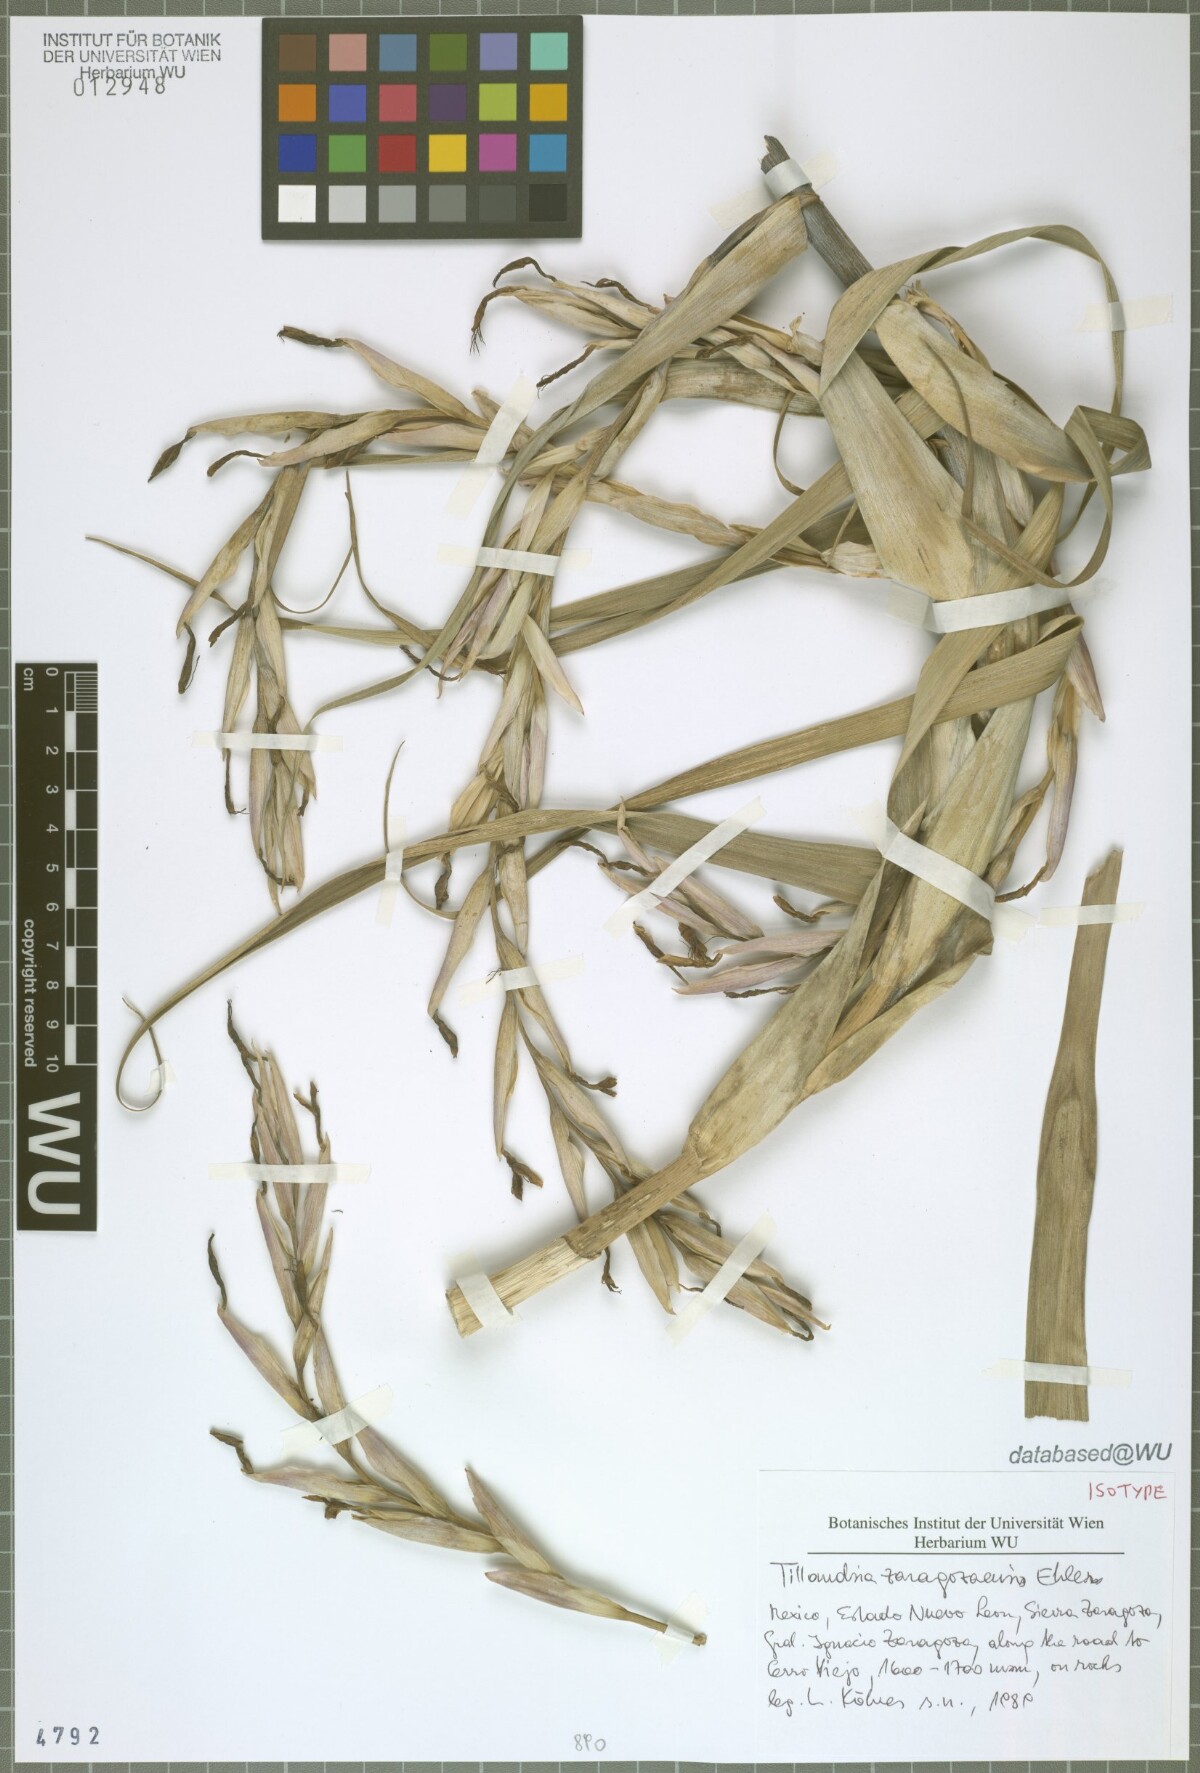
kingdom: Plantae
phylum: Tracheophyta
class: Liliopsida
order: Poales
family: Bromeliaceae
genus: Tillandsia
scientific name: Tillandsia zaragozaensis
